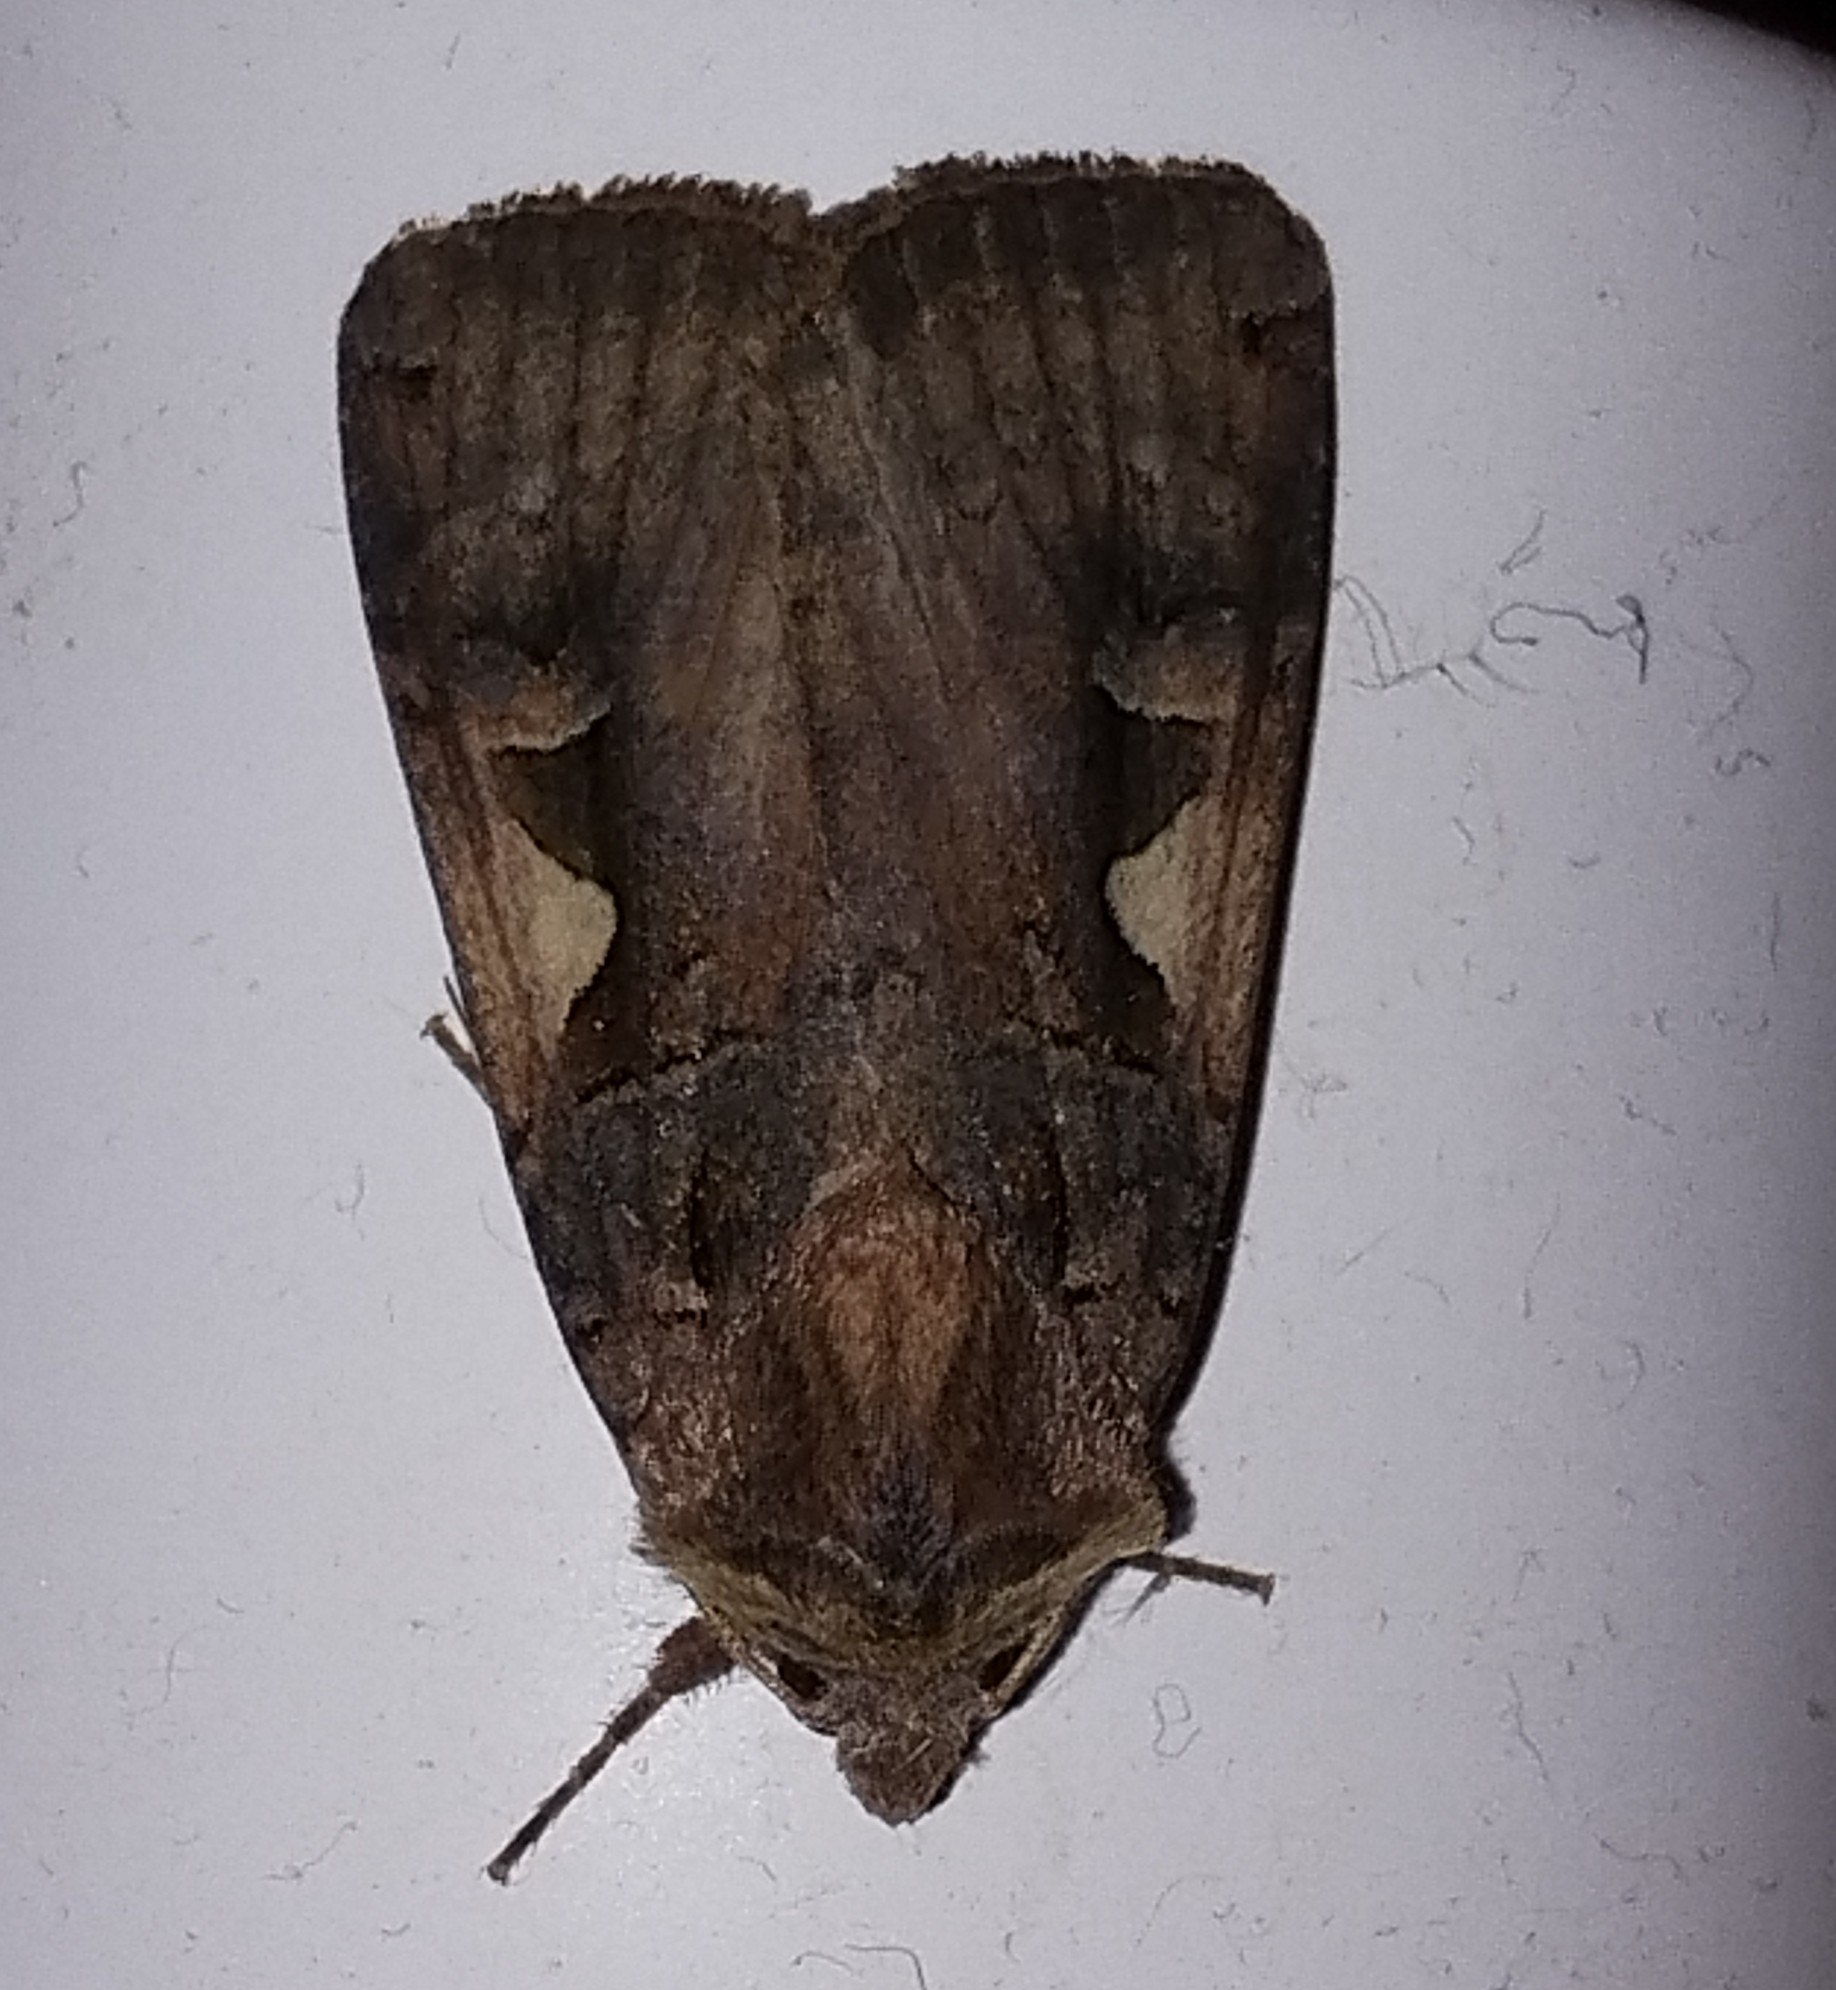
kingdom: Animalia
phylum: Arthropoda
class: Insecta
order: Lepidoptera
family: Noctuidae
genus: Xestia
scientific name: Xestia c-nigrum
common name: Det sorte c
